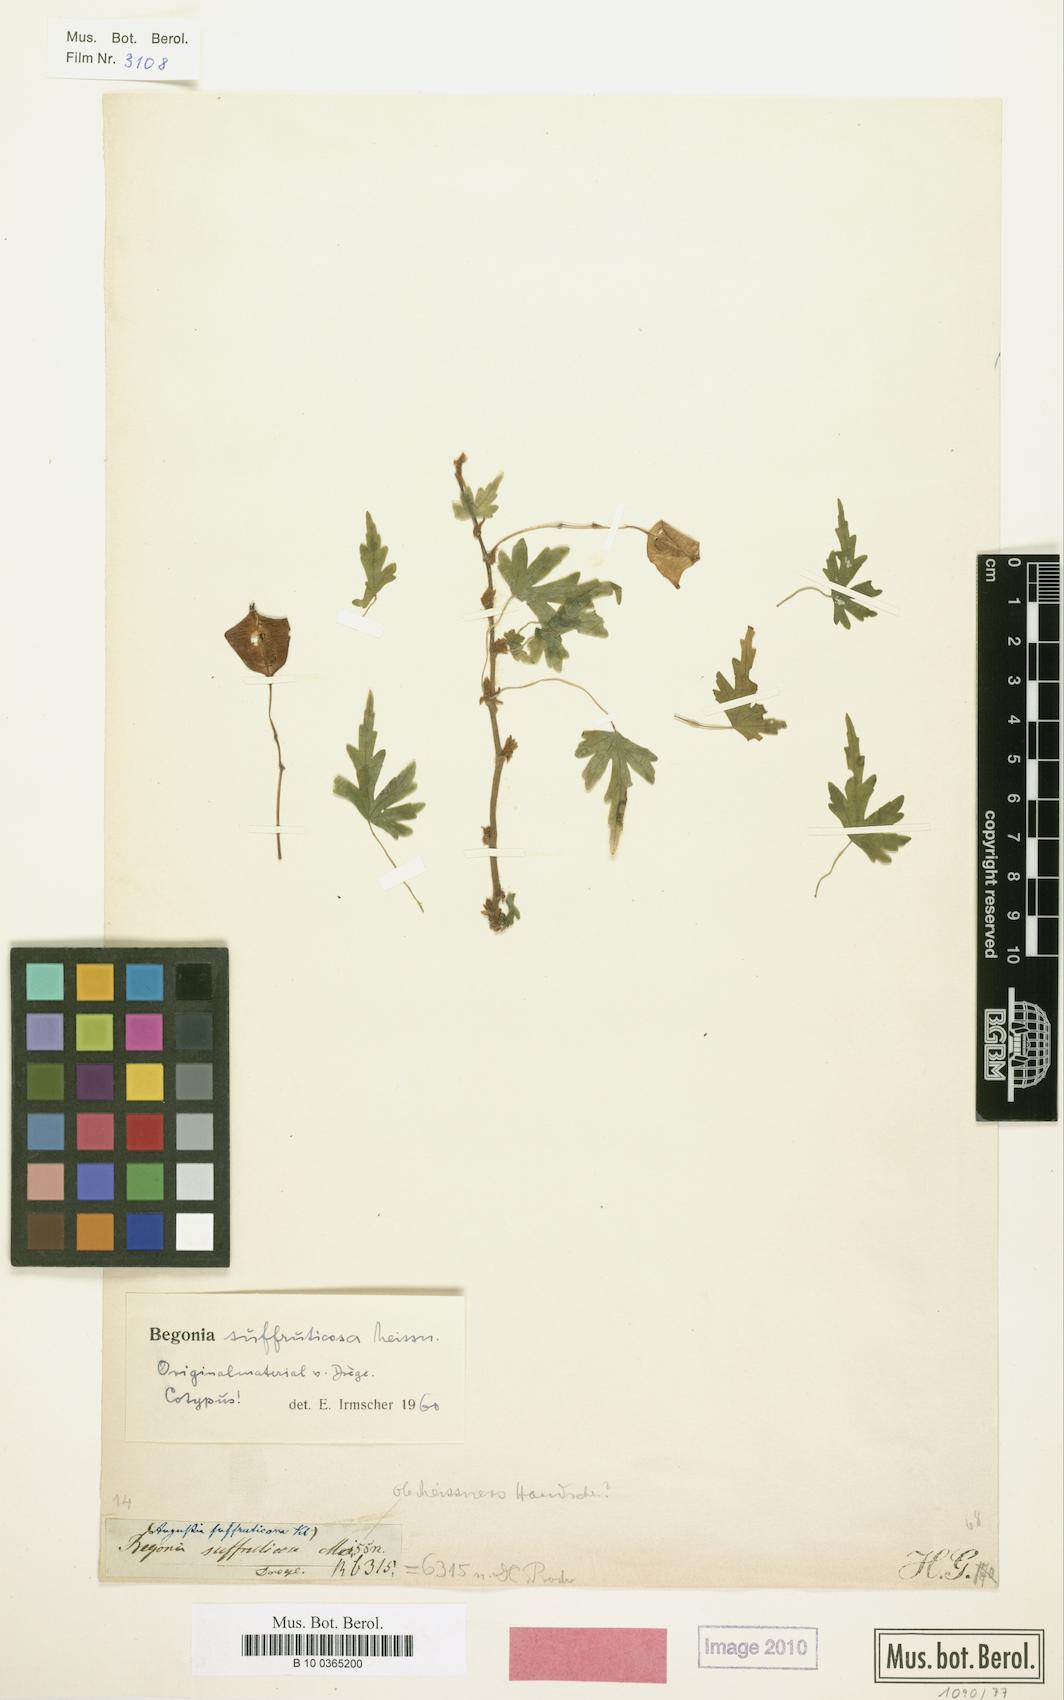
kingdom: Plantae
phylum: Tracheophyta
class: Magnoliopsida
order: Cucurbitales
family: Begoniaceae
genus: Begonia
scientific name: Begonia dregei
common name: Grape-leaf begonia
